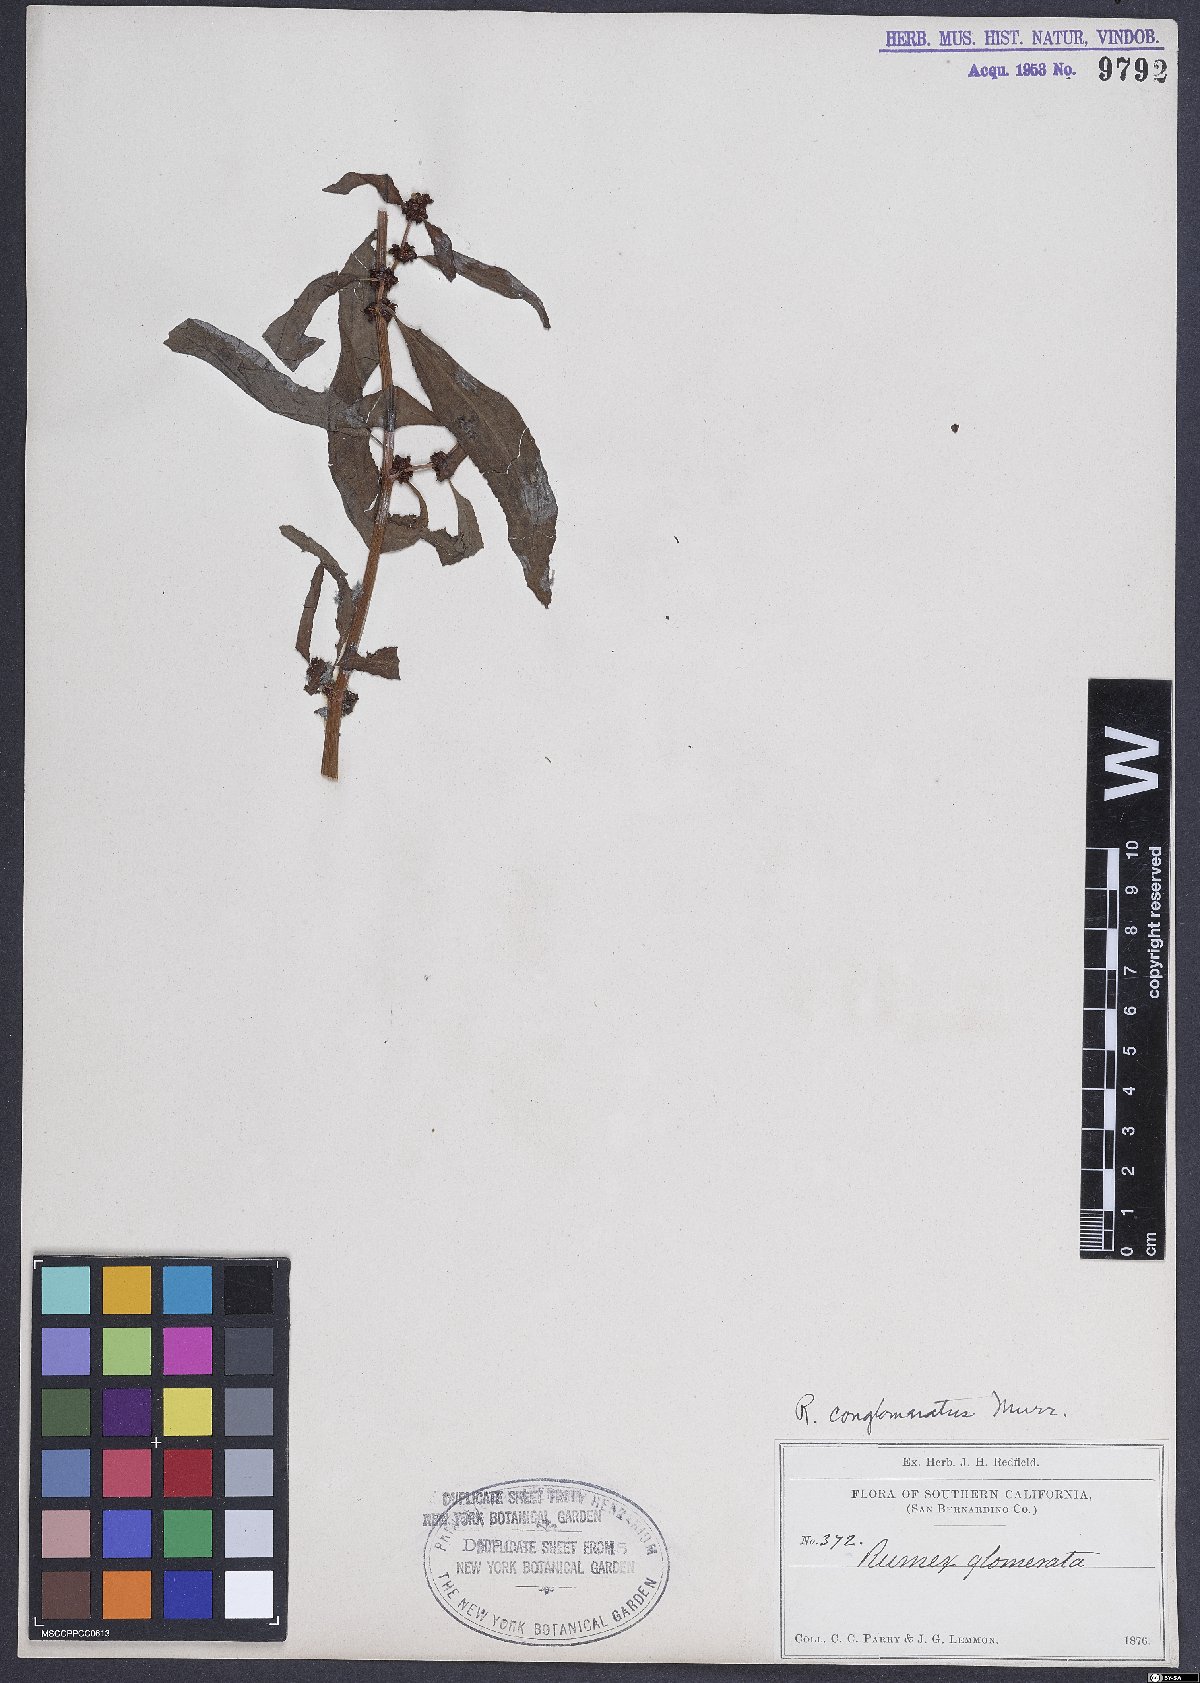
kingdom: Plantae
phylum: Tracheophyta
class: Magnoliopsida
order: Caryophyllales
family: Polygonaceae
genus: Rumex
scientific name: Rumex conglomeratus
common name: Clustered dock
